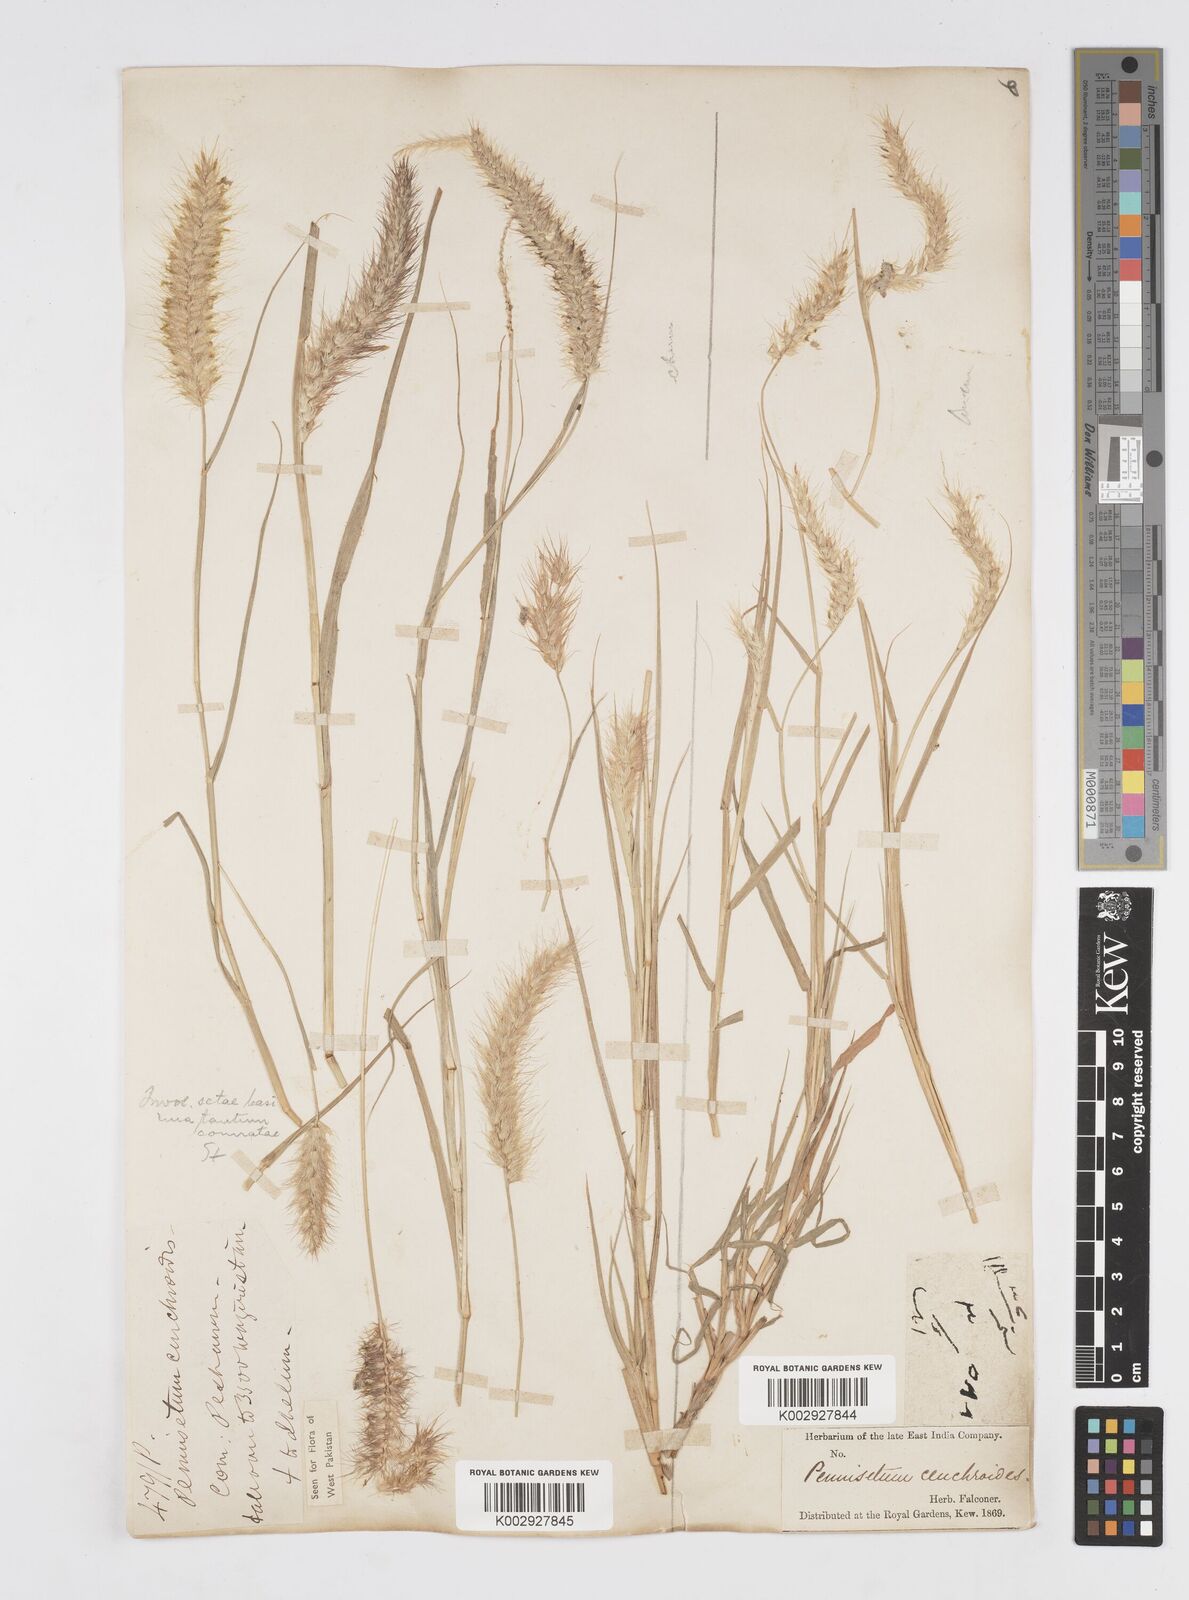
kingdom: Plantae
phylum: Tracheophyta
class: Liliopsida
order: Poales
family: Poaceae
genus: Cenchrus
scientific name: Cenchrus ciliaris
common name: Buffelgrass
